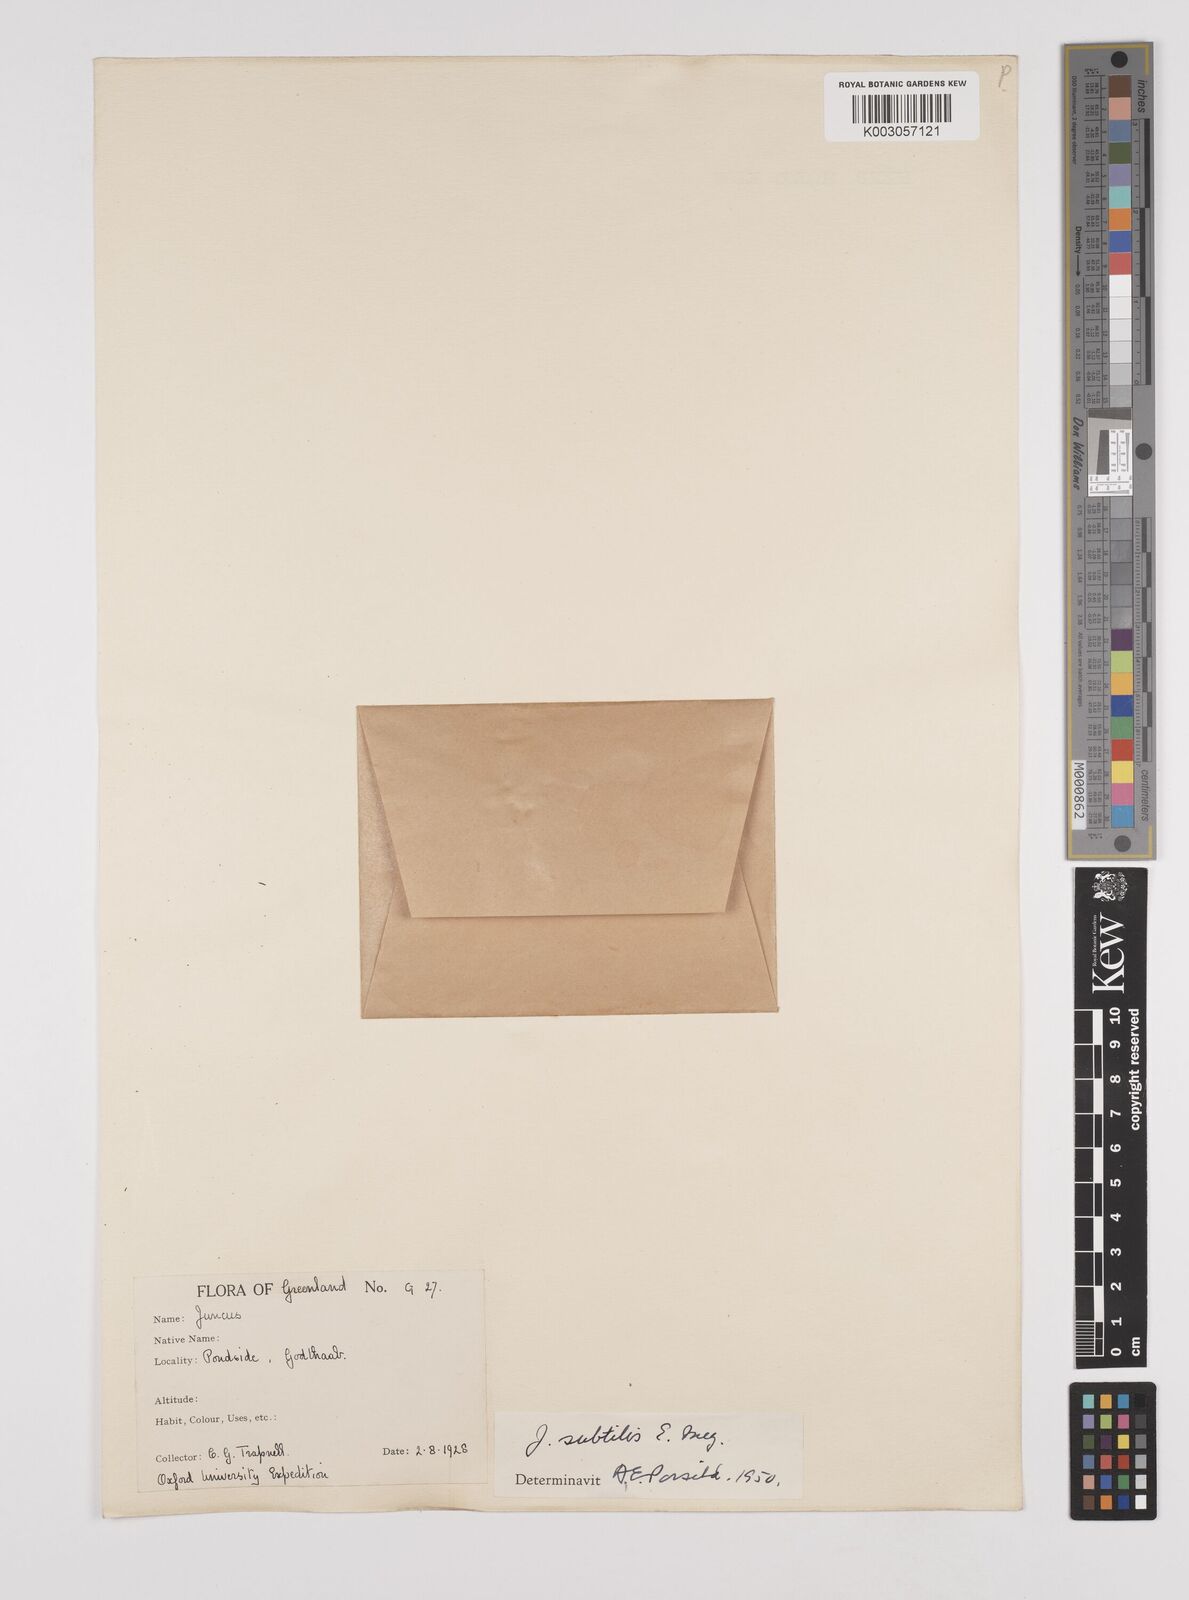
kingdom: Plantae
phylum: Tracheophyta
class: Liliopsida
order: Poales
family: Juncaceae
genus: Juncus
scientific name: Juncus subtilis
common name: Creeping rush
